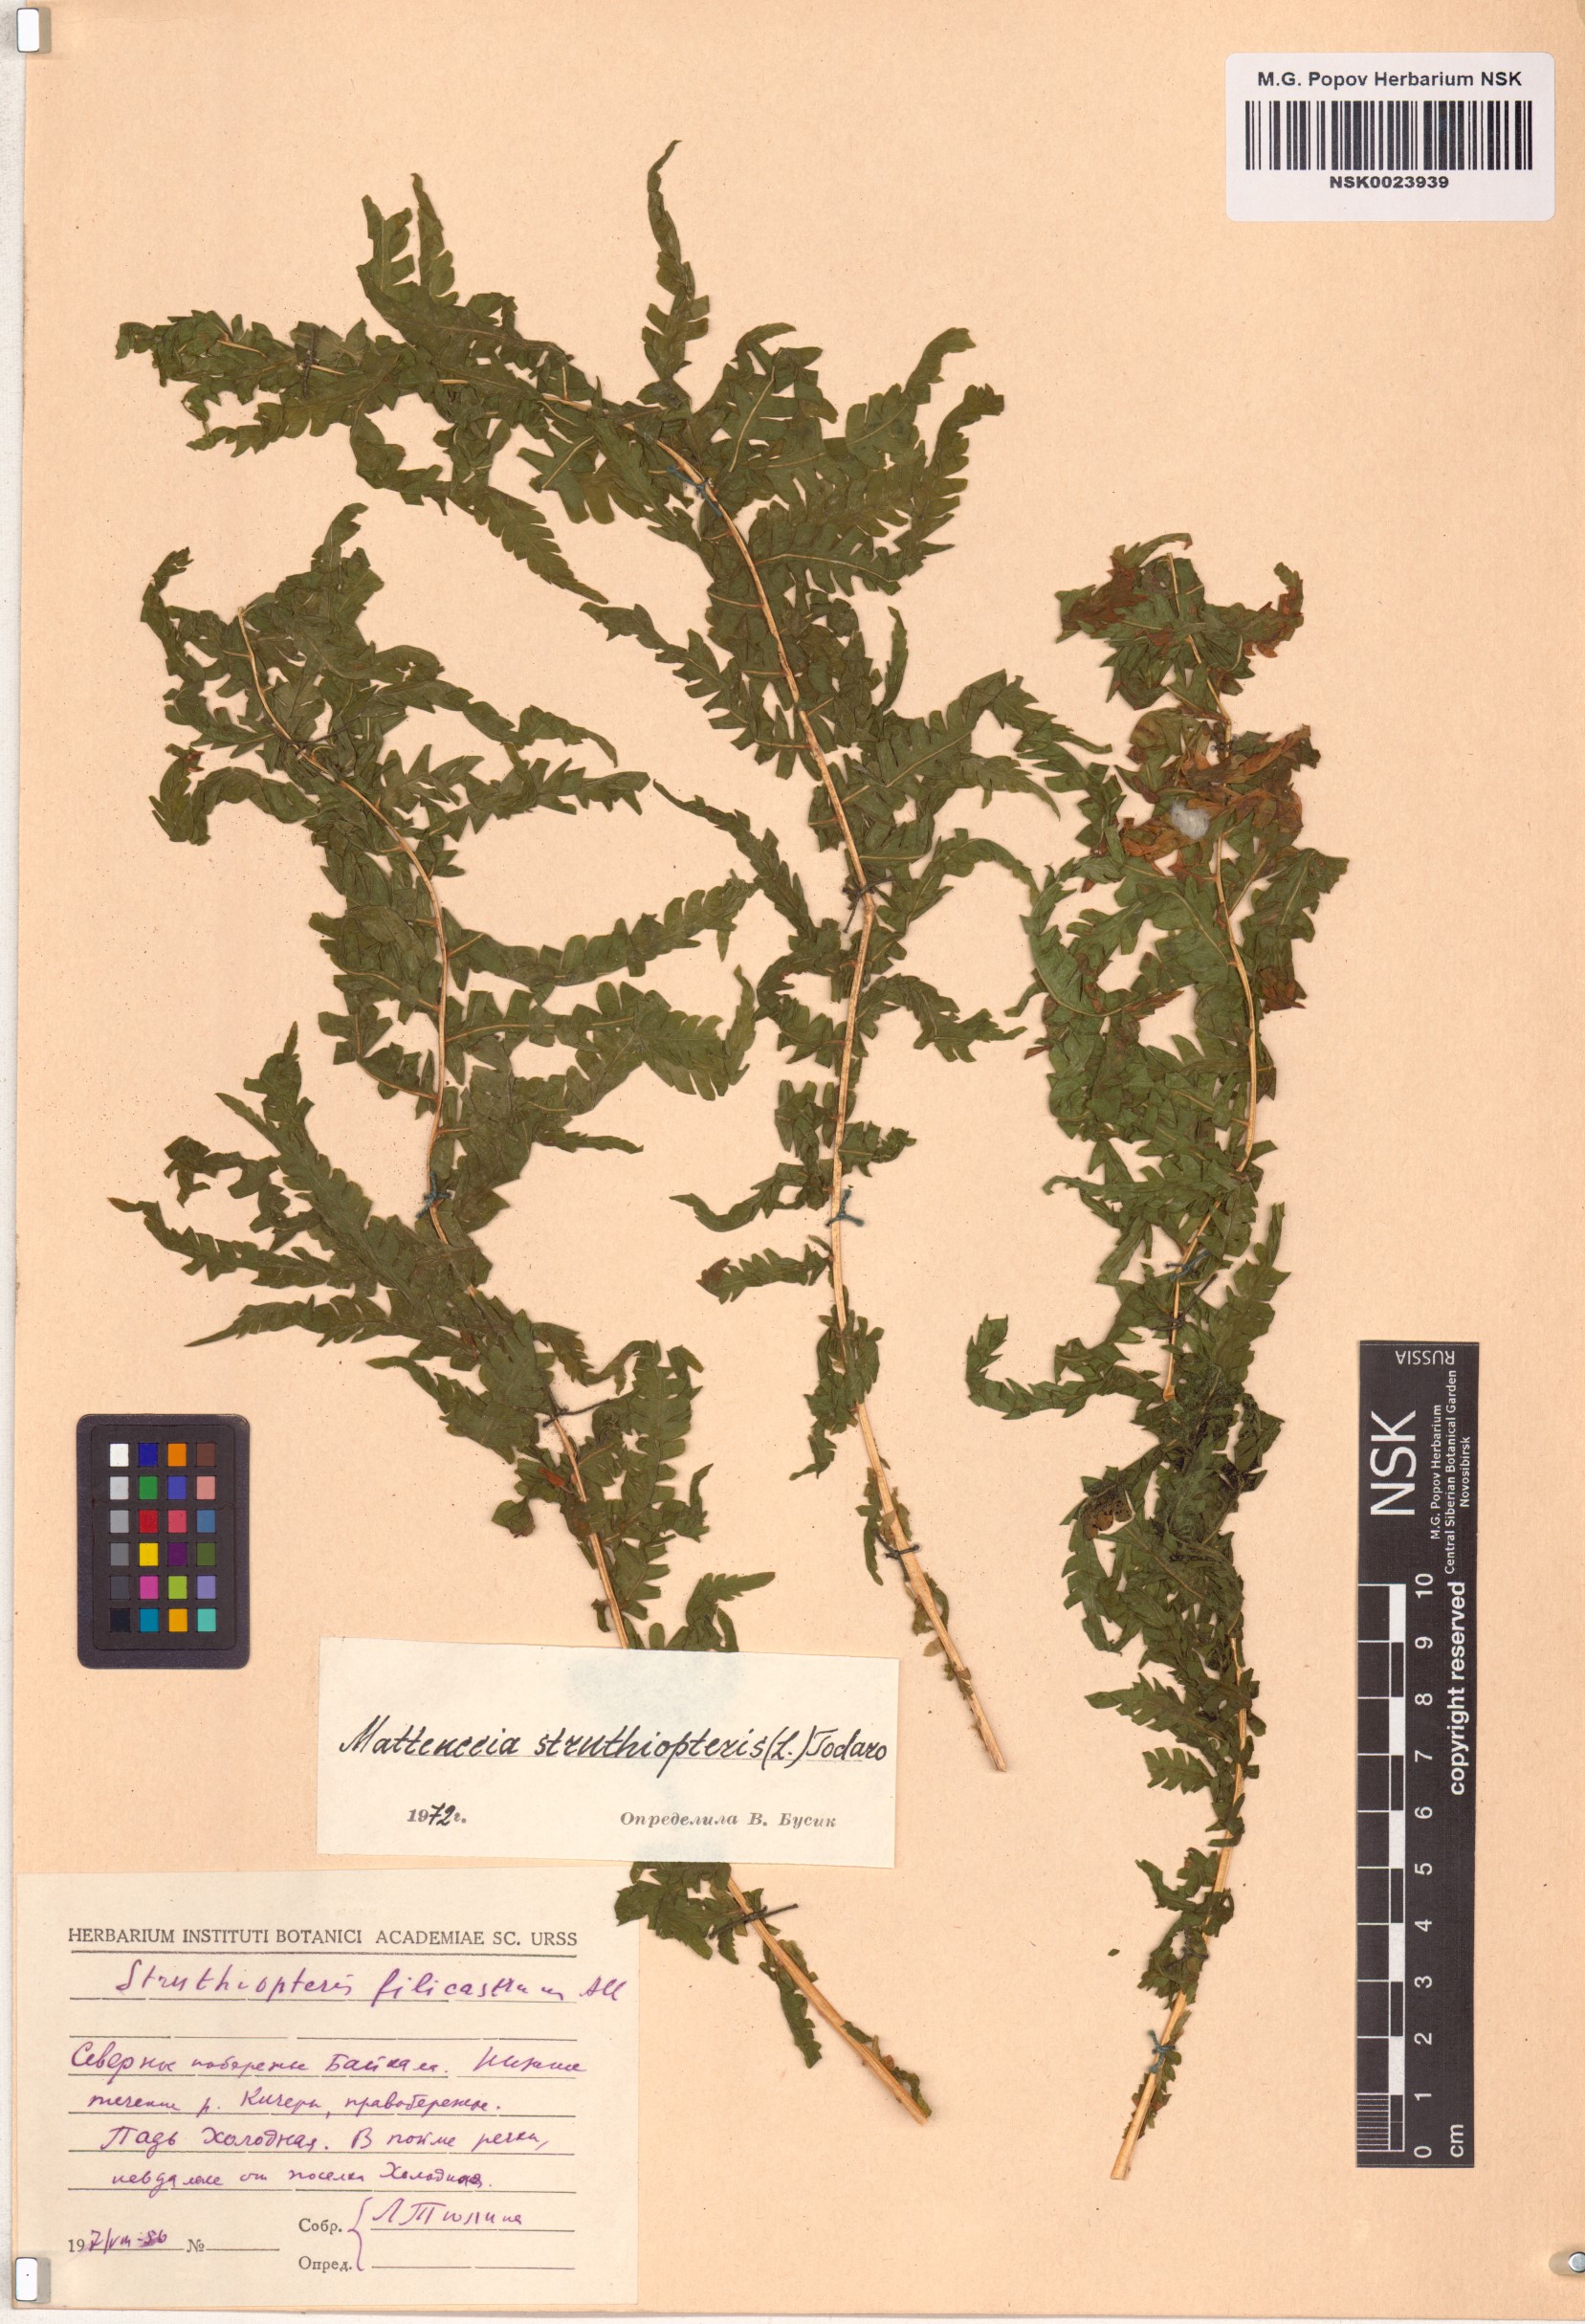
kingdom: Plantae
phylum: Tracheophyta
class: Polypodiopsida
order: Polypodiales
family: Onocleaceae
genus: Matteuccia
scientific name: Matteuccia struthiopteris
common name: Ostrich fern
